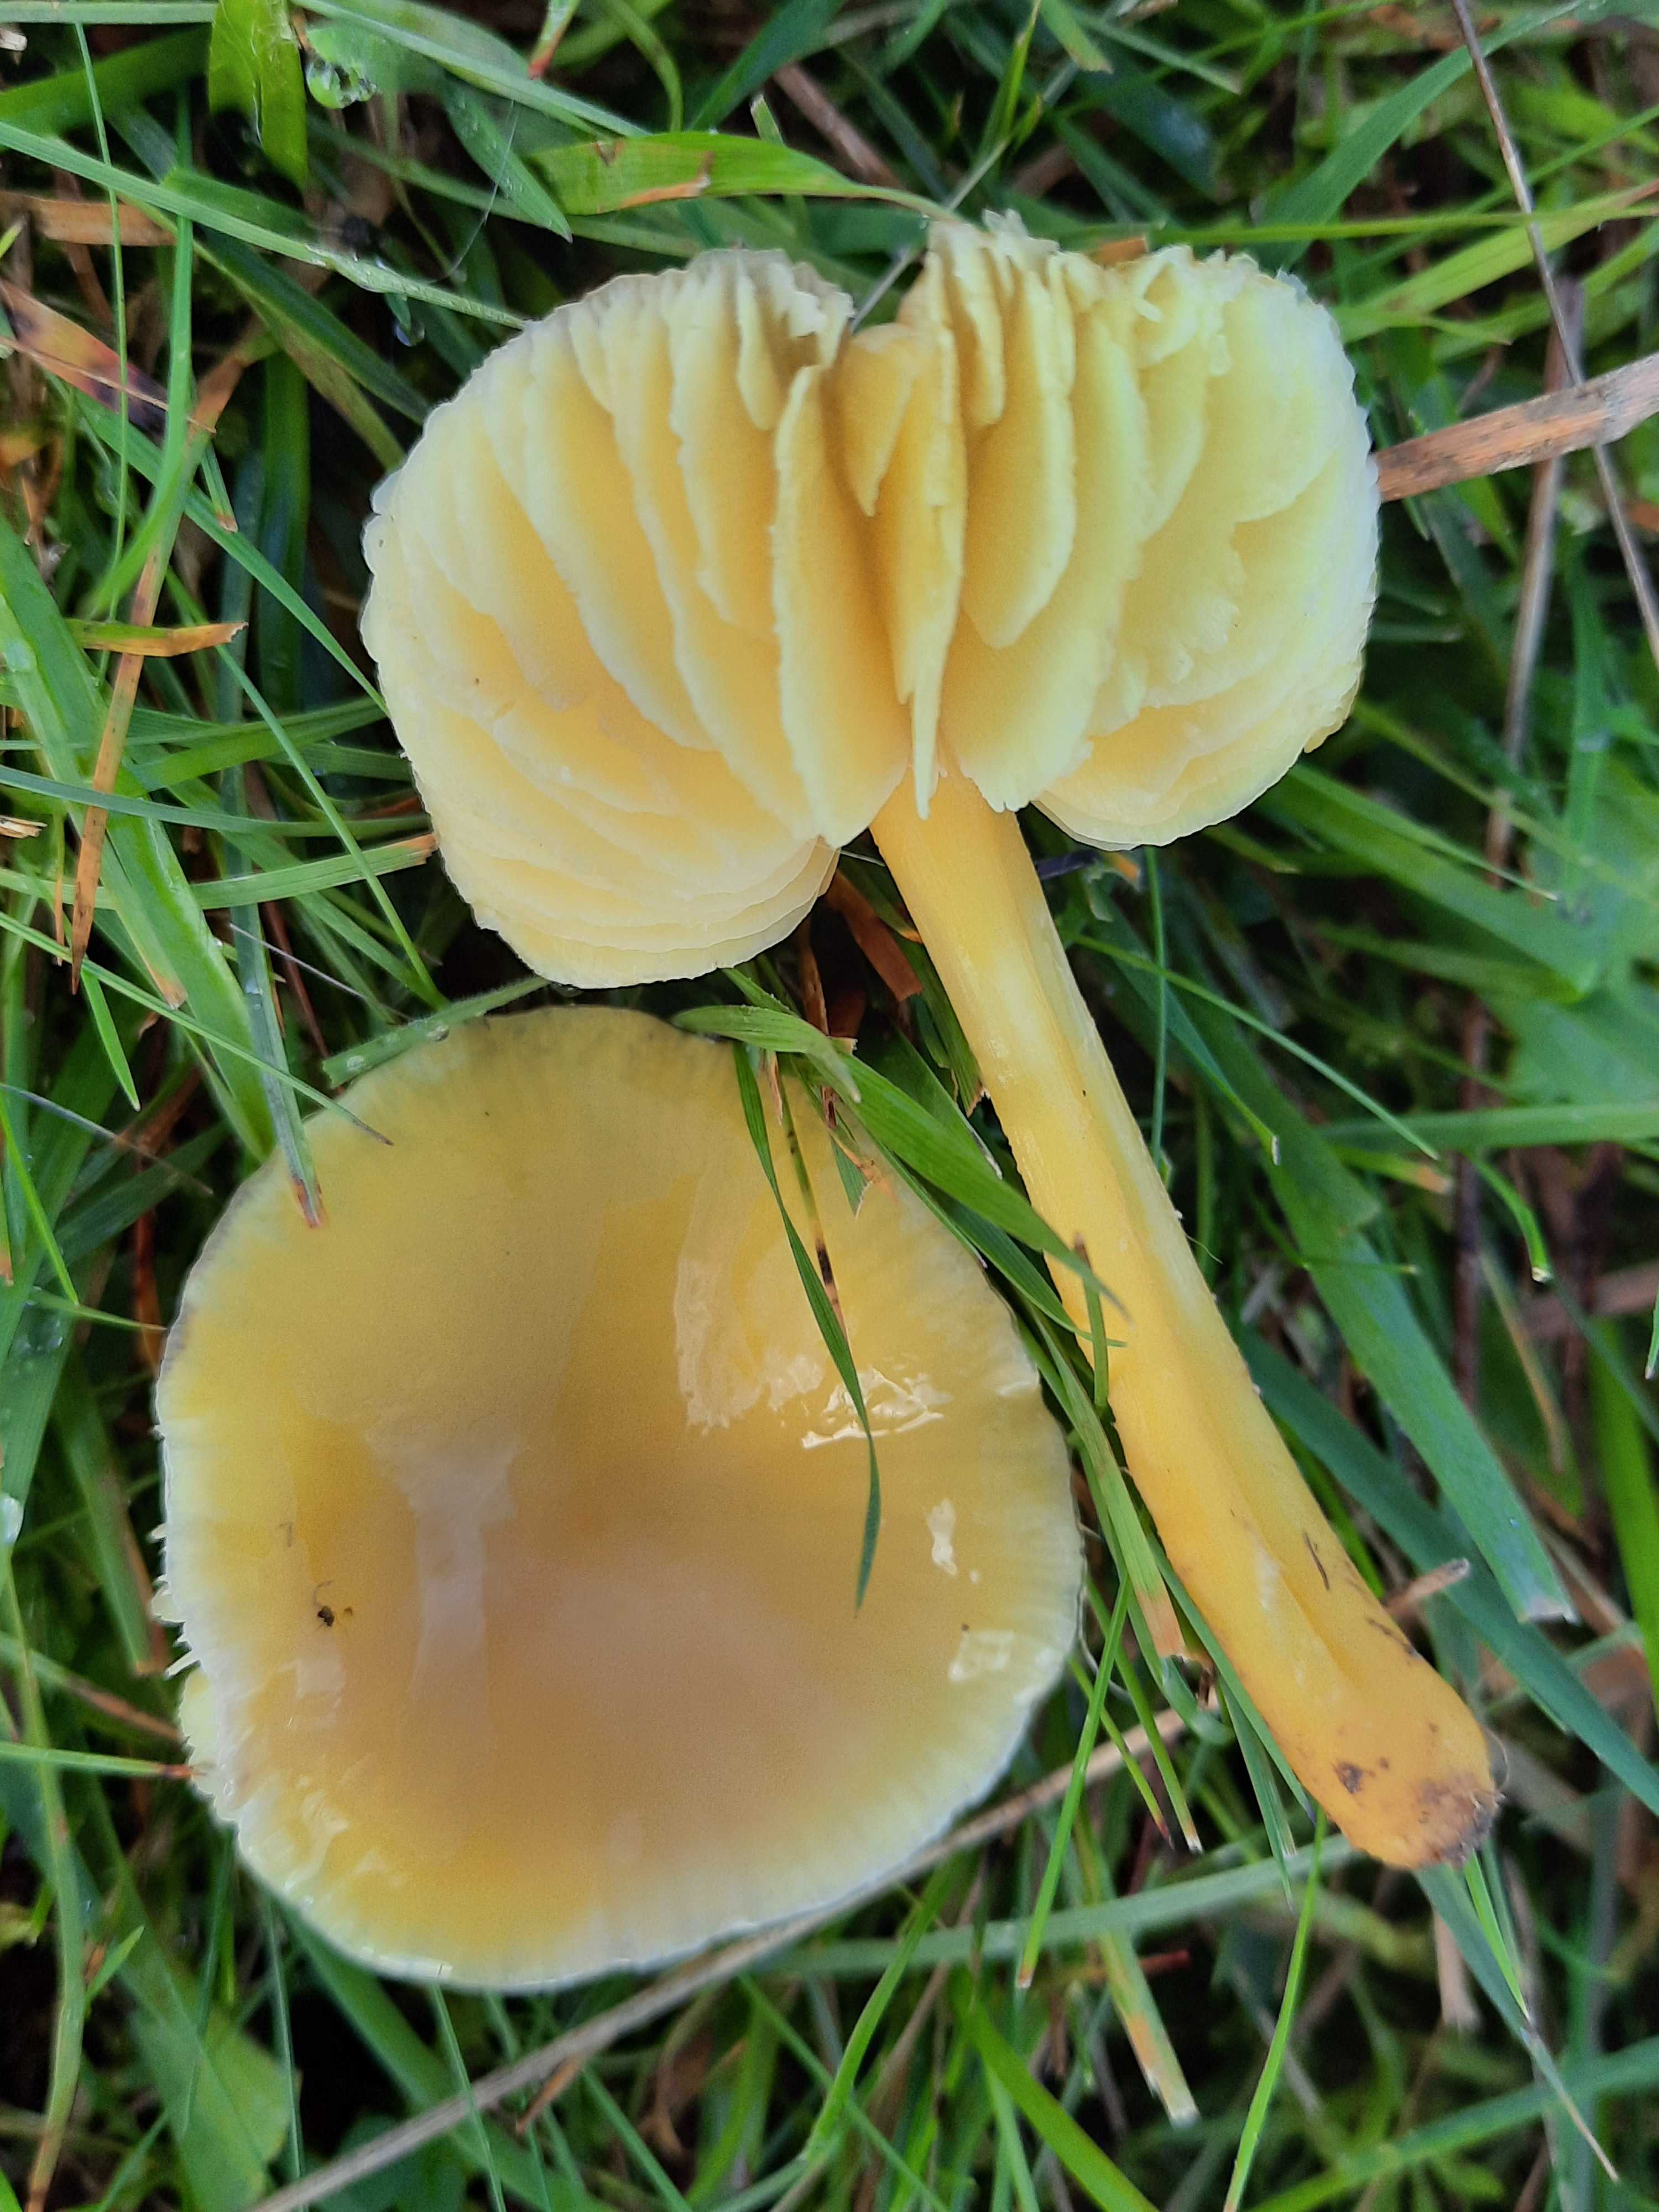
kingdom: Fungi
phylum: Basidiomycota
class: Agaricomycetes
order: Agaricales
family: Hygrophoraceae
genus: Hygrocybe
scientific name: Hygrocybe chlorophana
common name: gul vokshat
